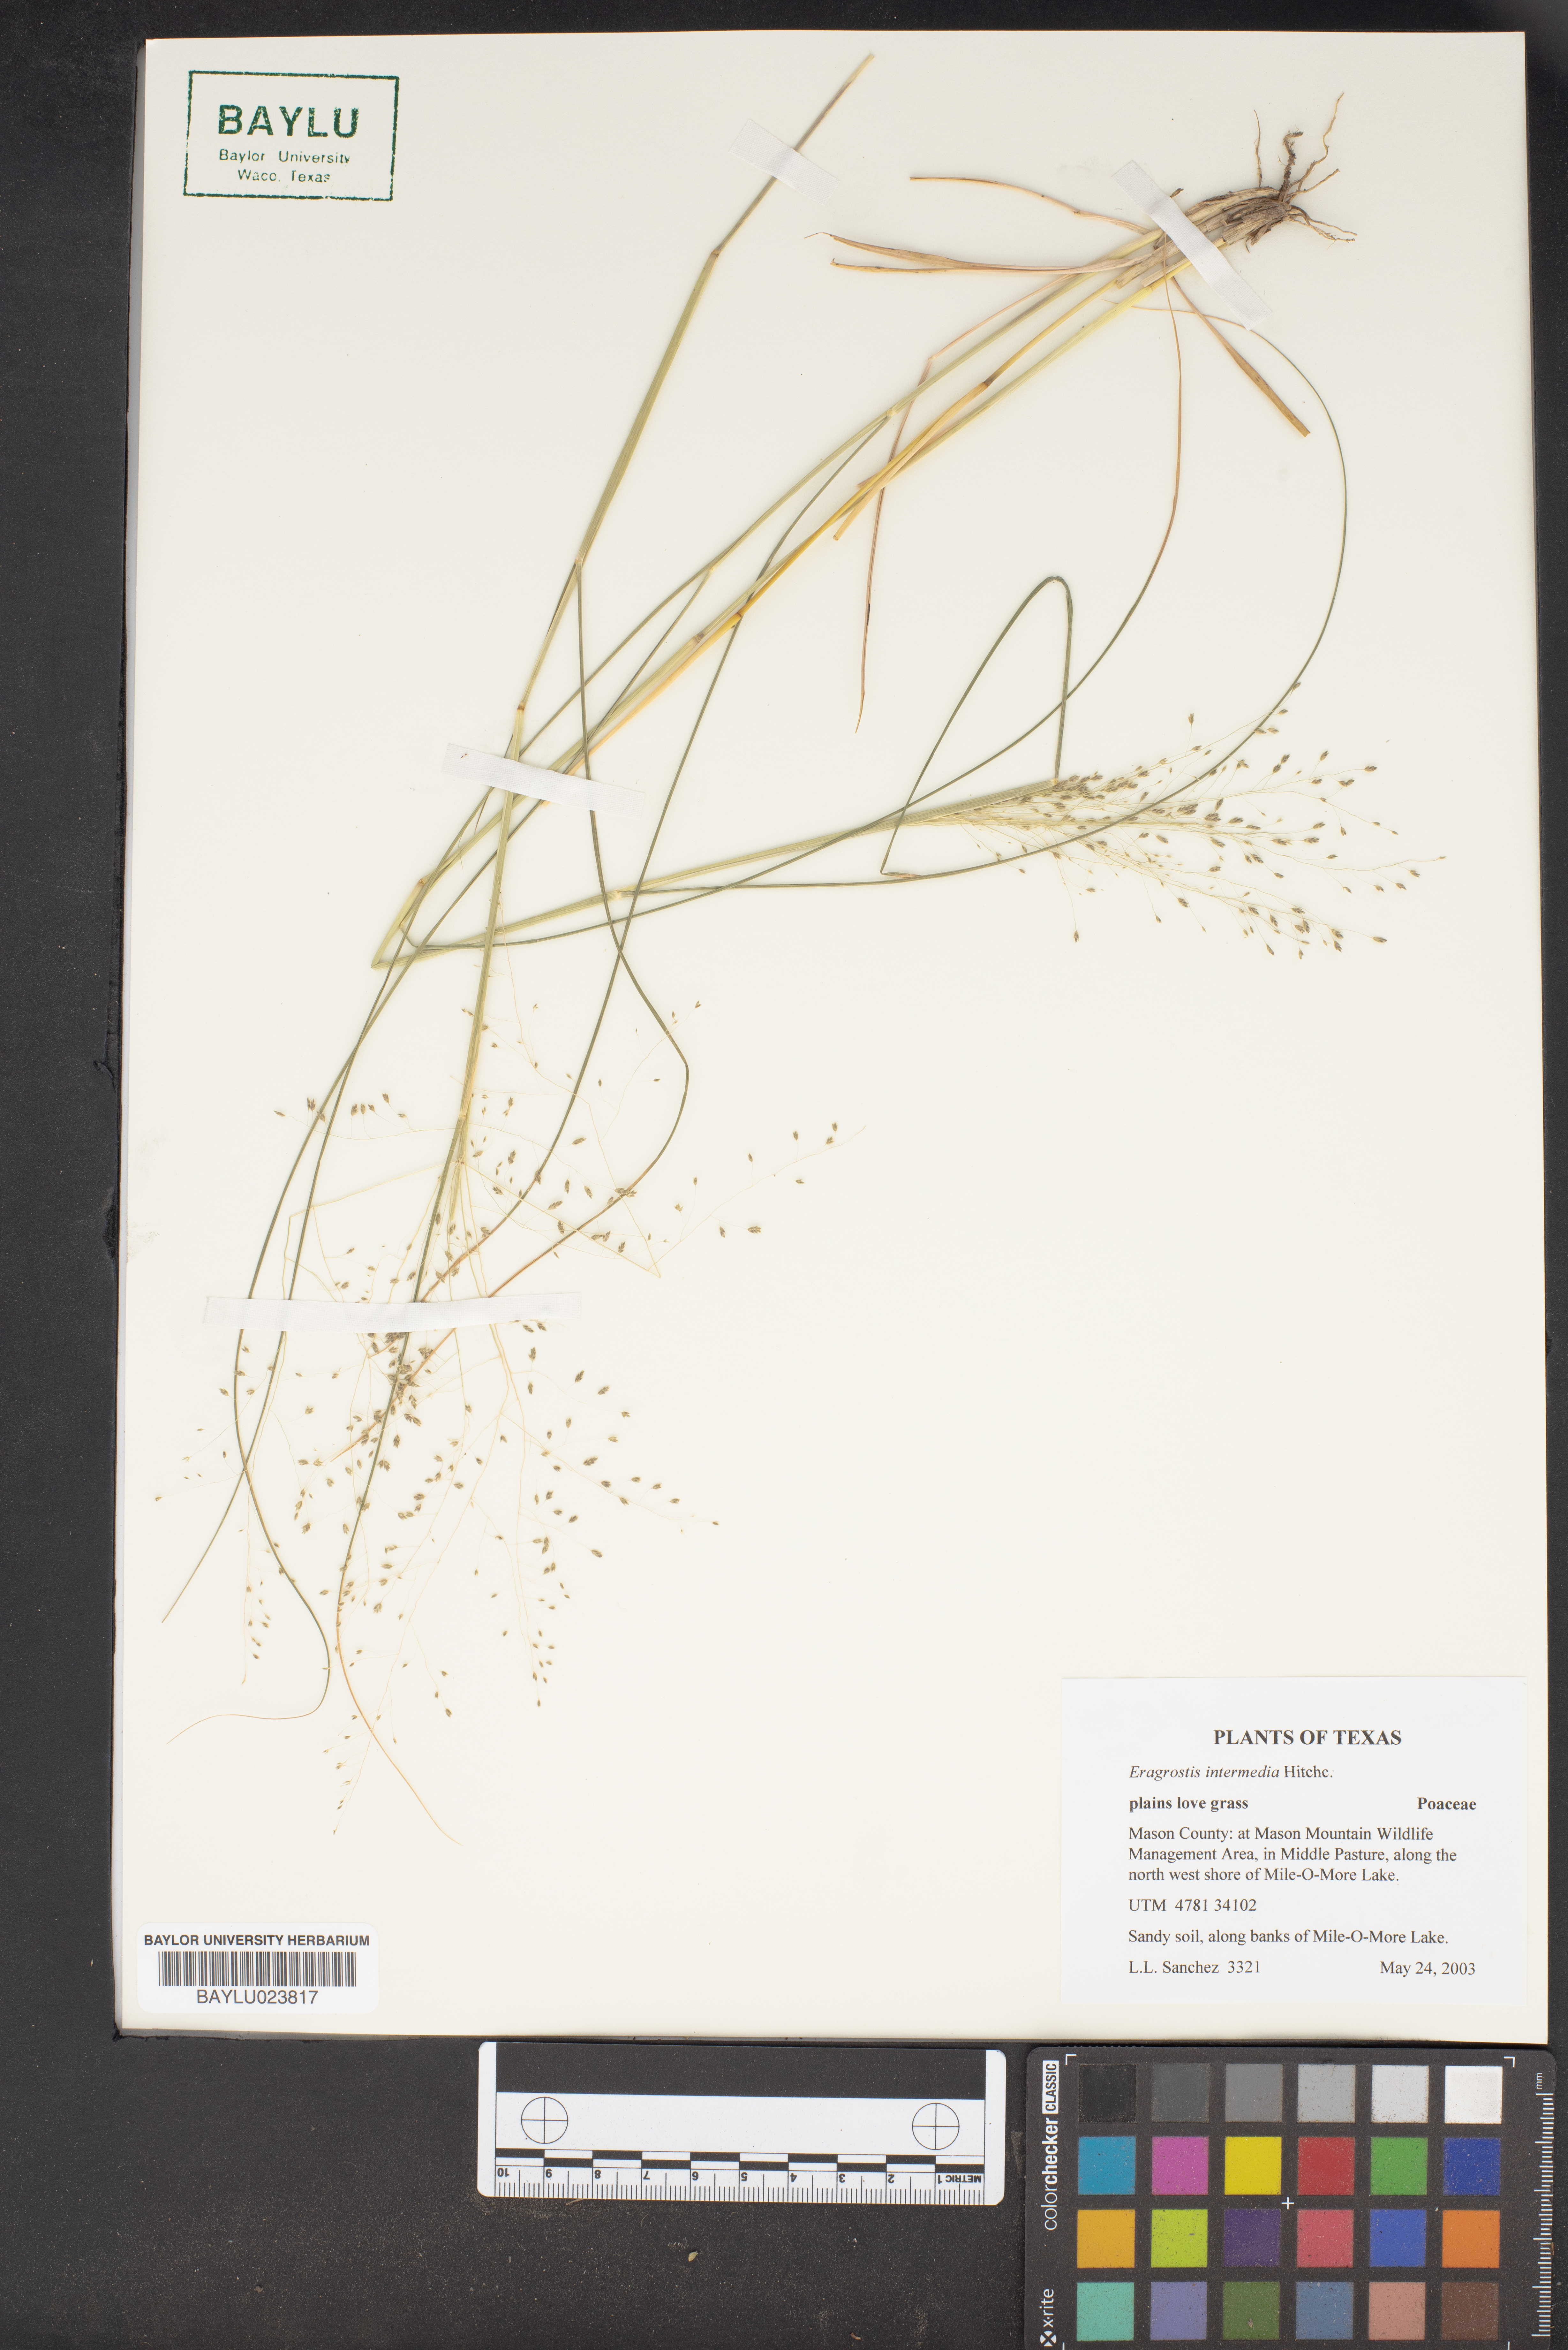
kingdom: Plantae
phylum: Tracheophyta
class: Liliopsida
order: Poales
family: Poaceae
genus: Eragrostis
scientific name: Eragrostis intermedia
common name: Plains love grass
